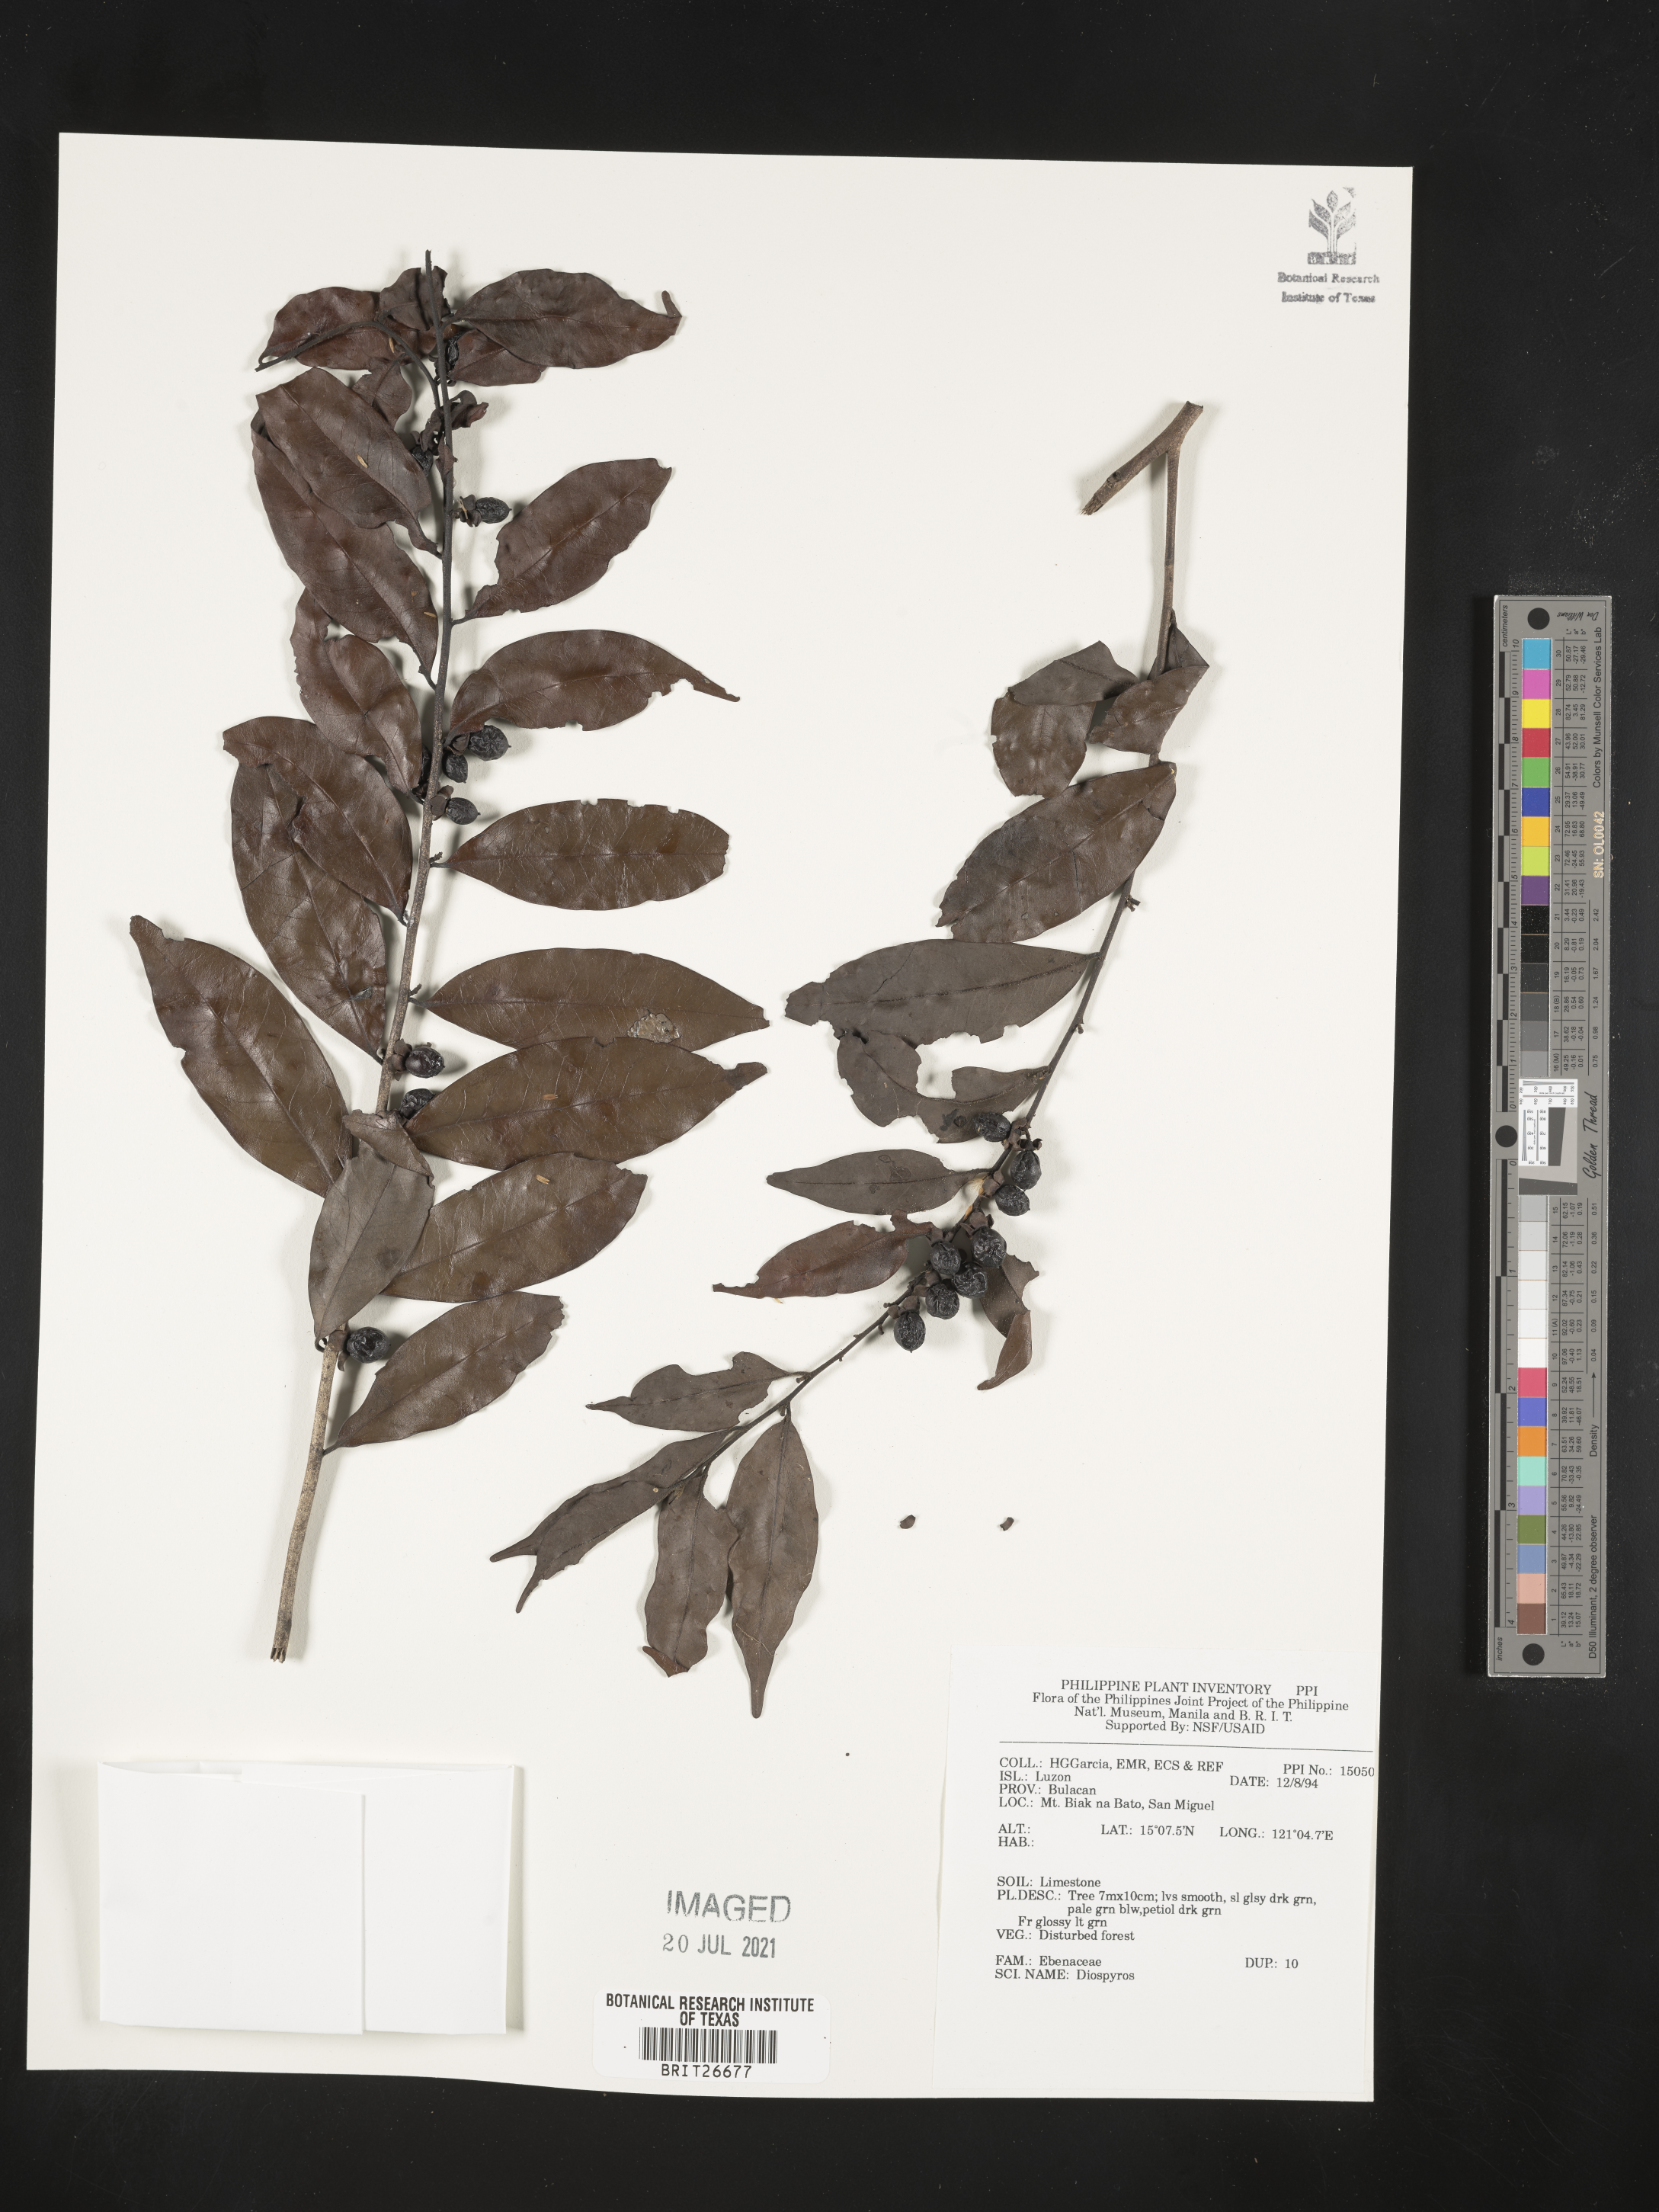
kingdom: Plantae
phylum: Tracheophyta
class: Magnoliopsida
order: Ericales
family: Ebenaceae
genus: Diospyros
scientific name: Diospyros
